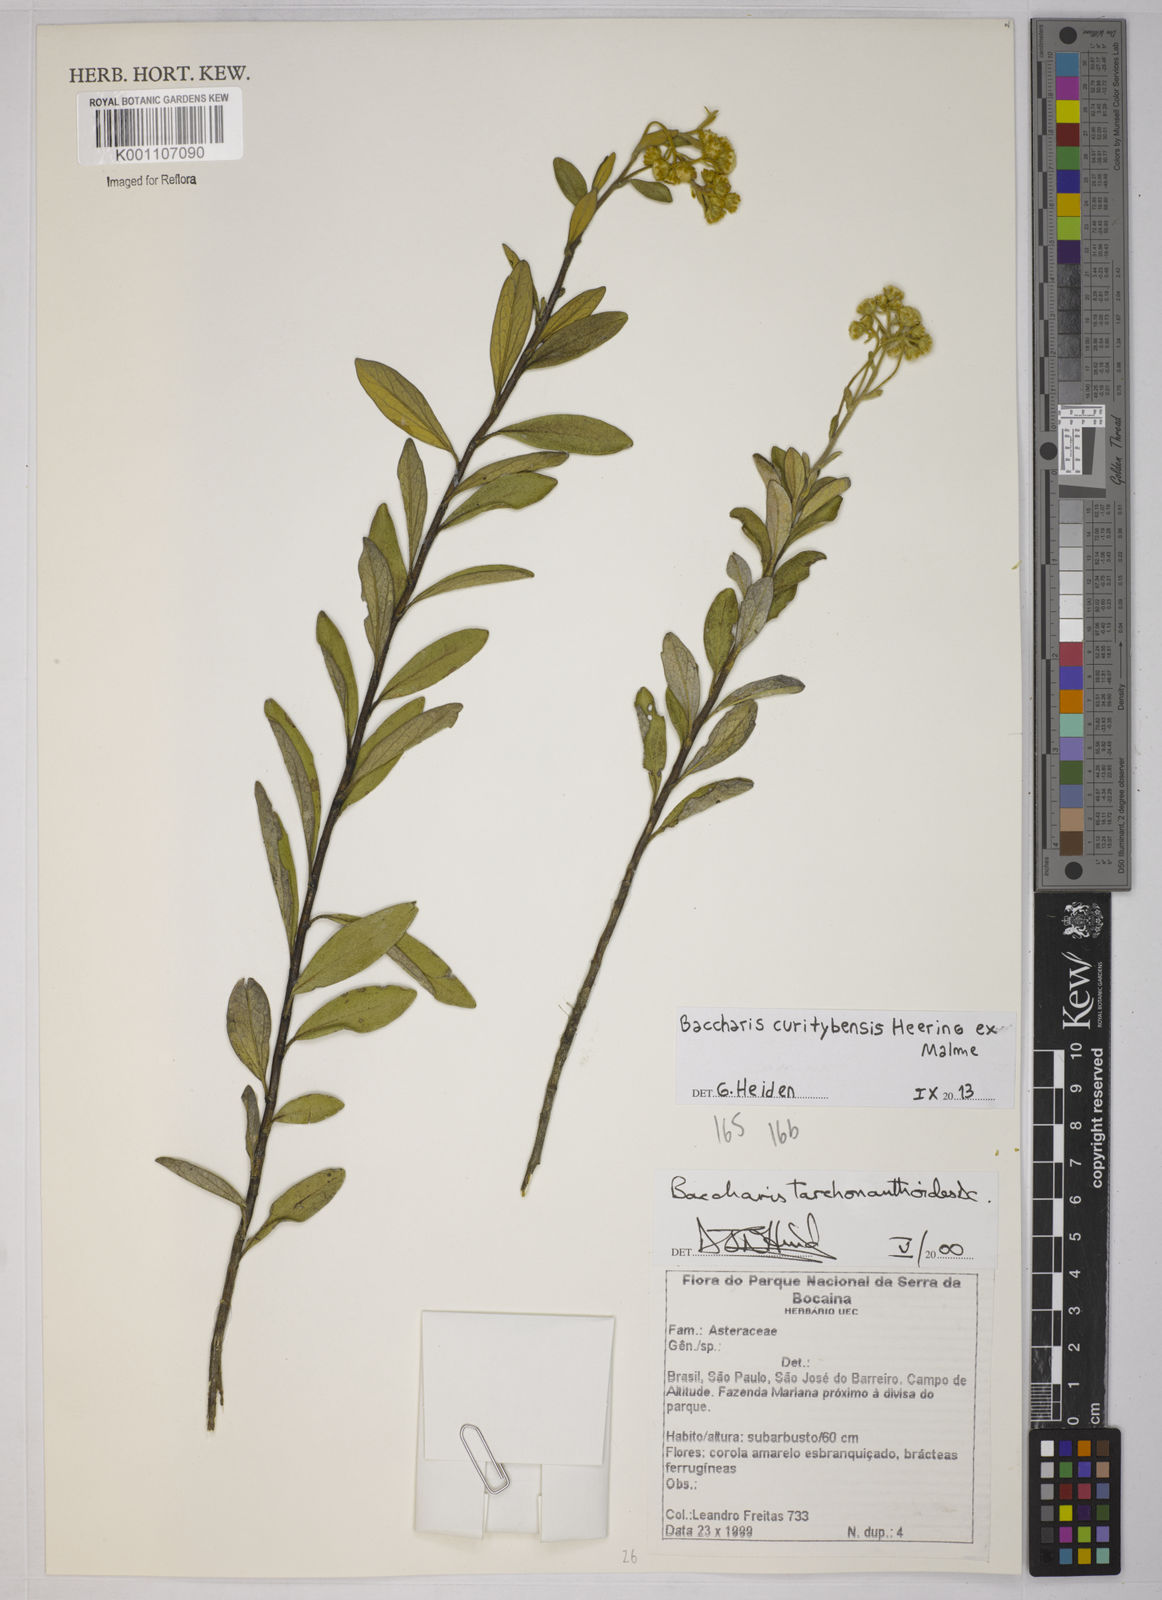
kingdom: Plantae
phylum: Tracheophyta
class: Magnoliopsida
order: Asterales
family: Asteraceae
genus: Baccharis
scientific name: Baccharis curitybensis
